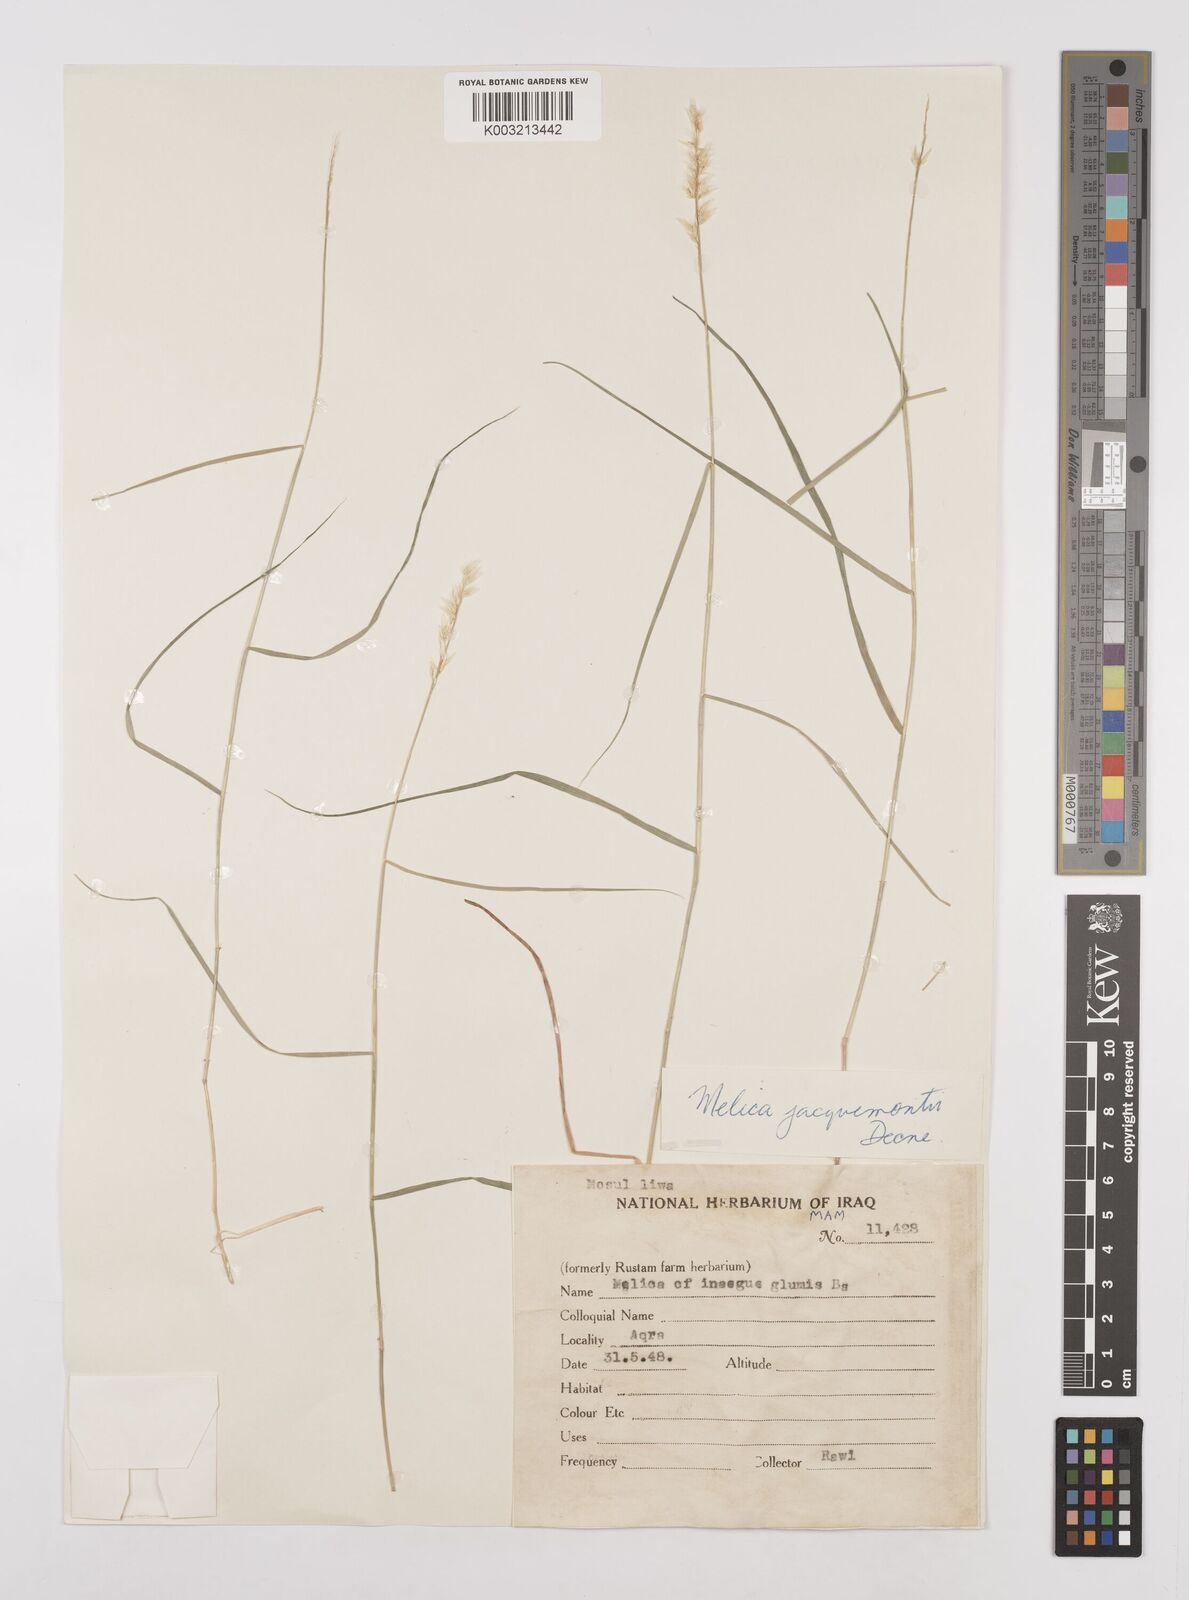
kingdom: Plantae
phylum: Tracheophyta
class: Liliopsida
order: Poales
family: Poaceae
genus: Melica
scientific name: Melica persica
